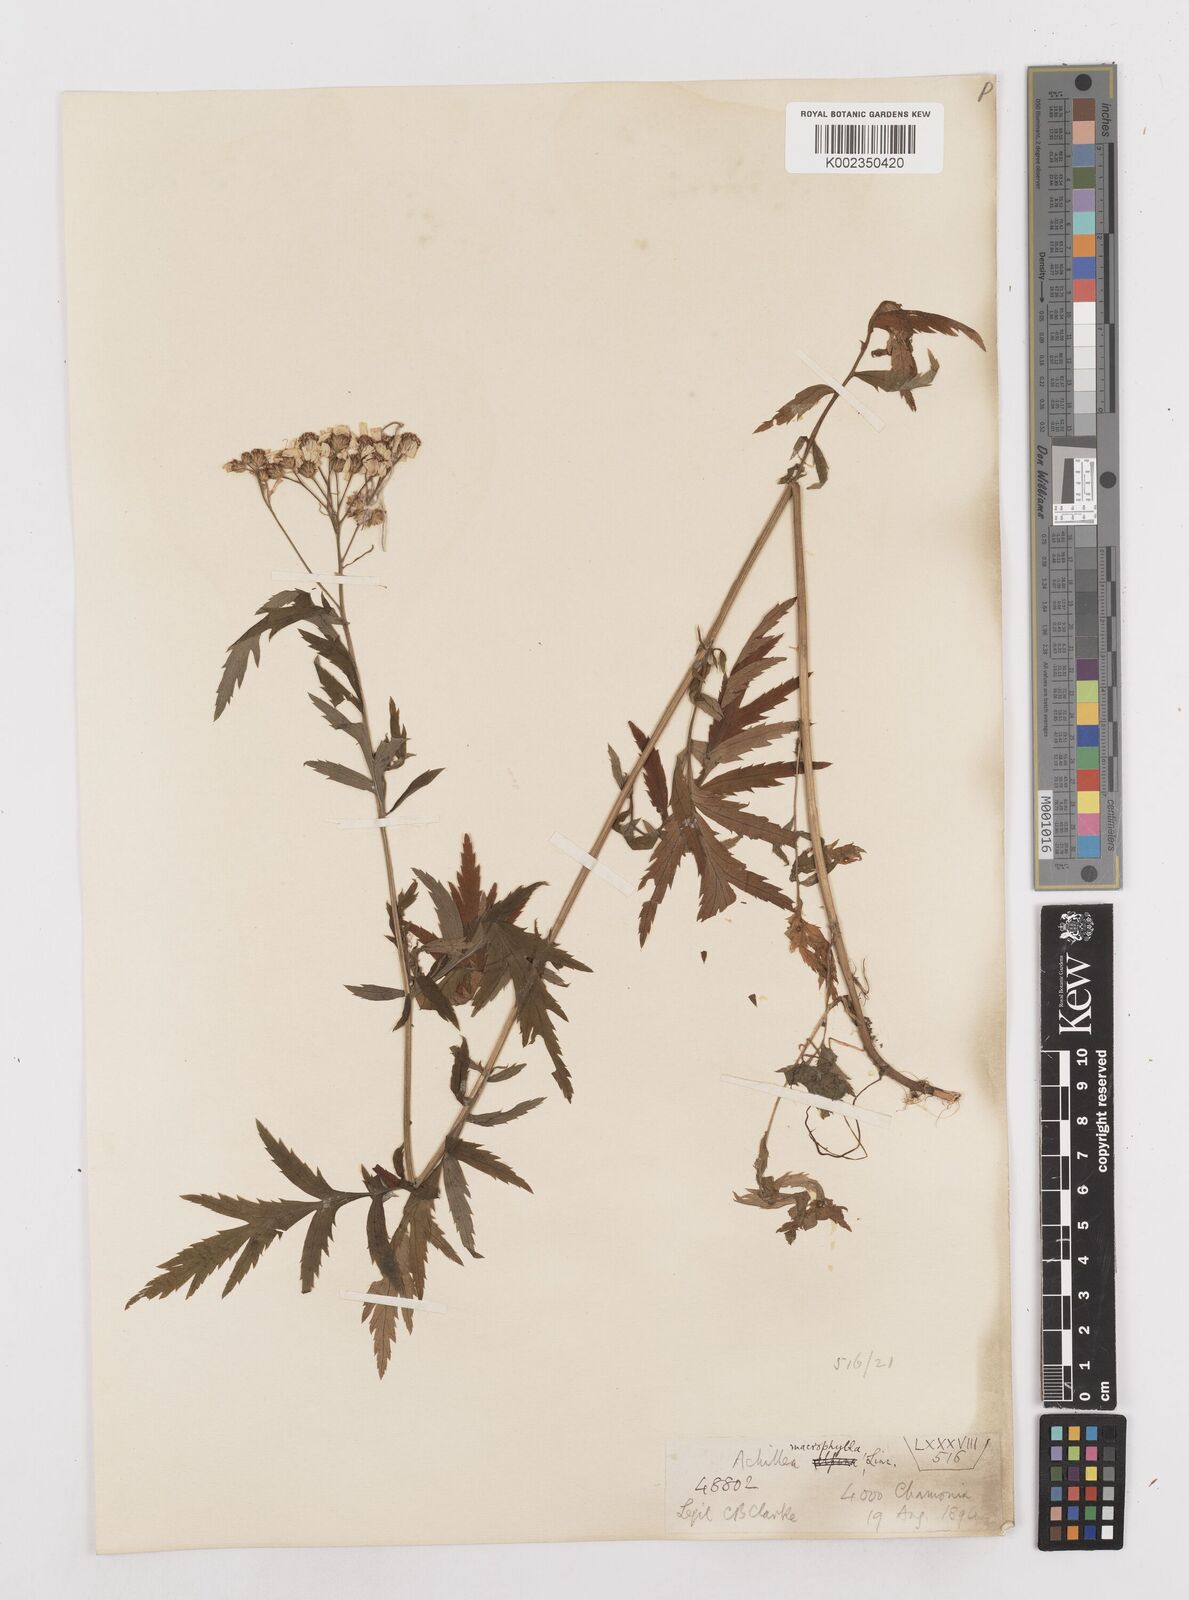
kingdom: Plantae
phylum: Tracheophyta
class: Magnoliopsida
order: Asterales
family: Asteraceae
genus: Achillea
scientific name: Achillea macrophylla
